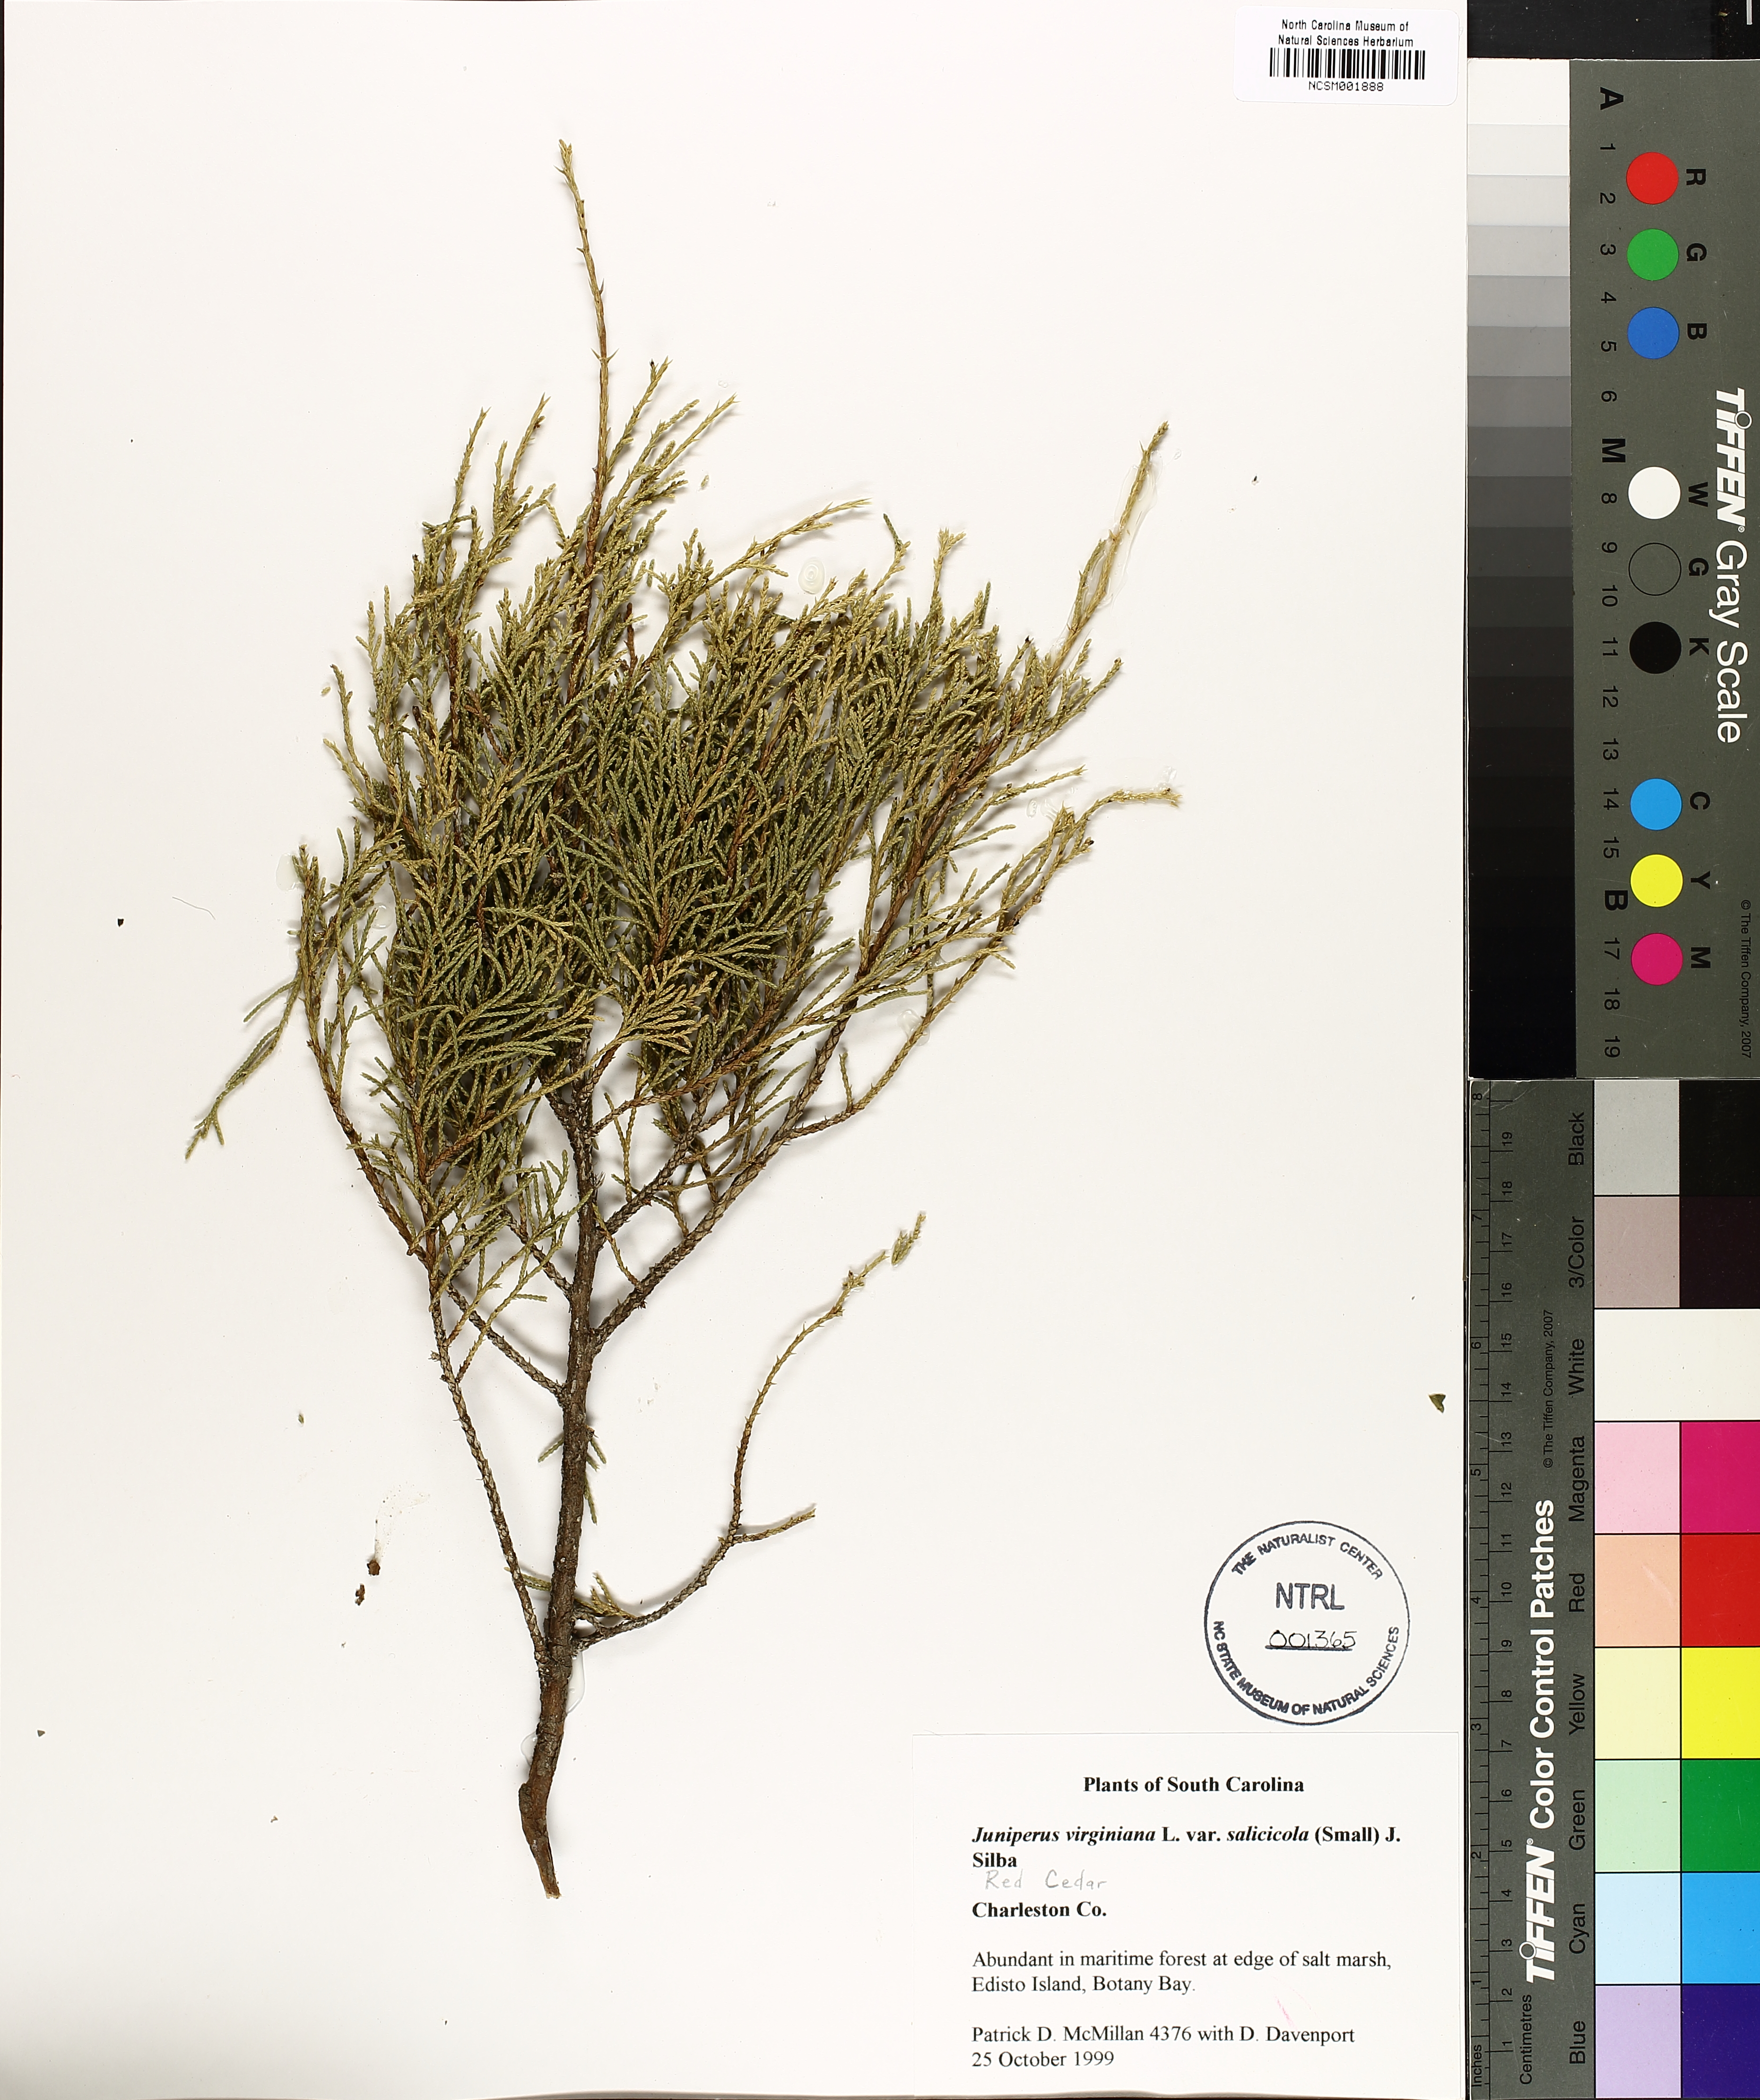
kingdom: Plantae
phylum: Tracheophyta
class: Pinopsida
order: Pinales
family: Cupressaceae
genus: Juniperus
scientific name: Juniperus virginiana
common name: Red juniper
